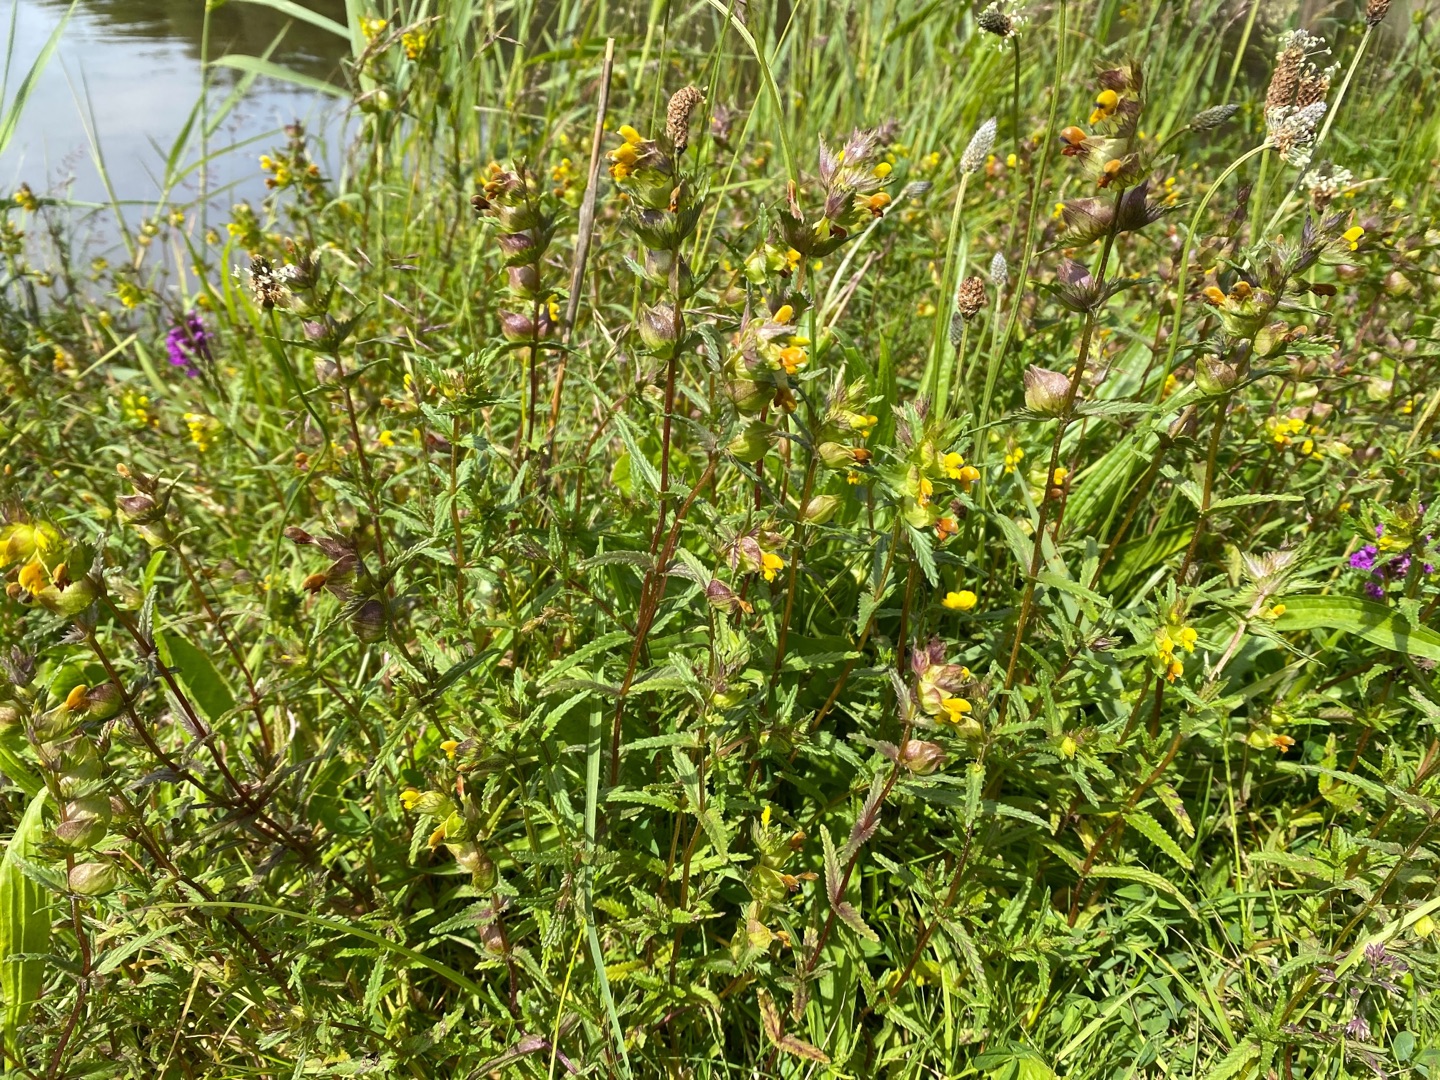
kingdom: Plantae
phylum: Tracheophyta
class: Magnoliopsida
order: Lamiales
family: Orobanchaceae
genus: Rhinanthus
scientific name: Rhinanthus minor
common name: Liden skjaller
